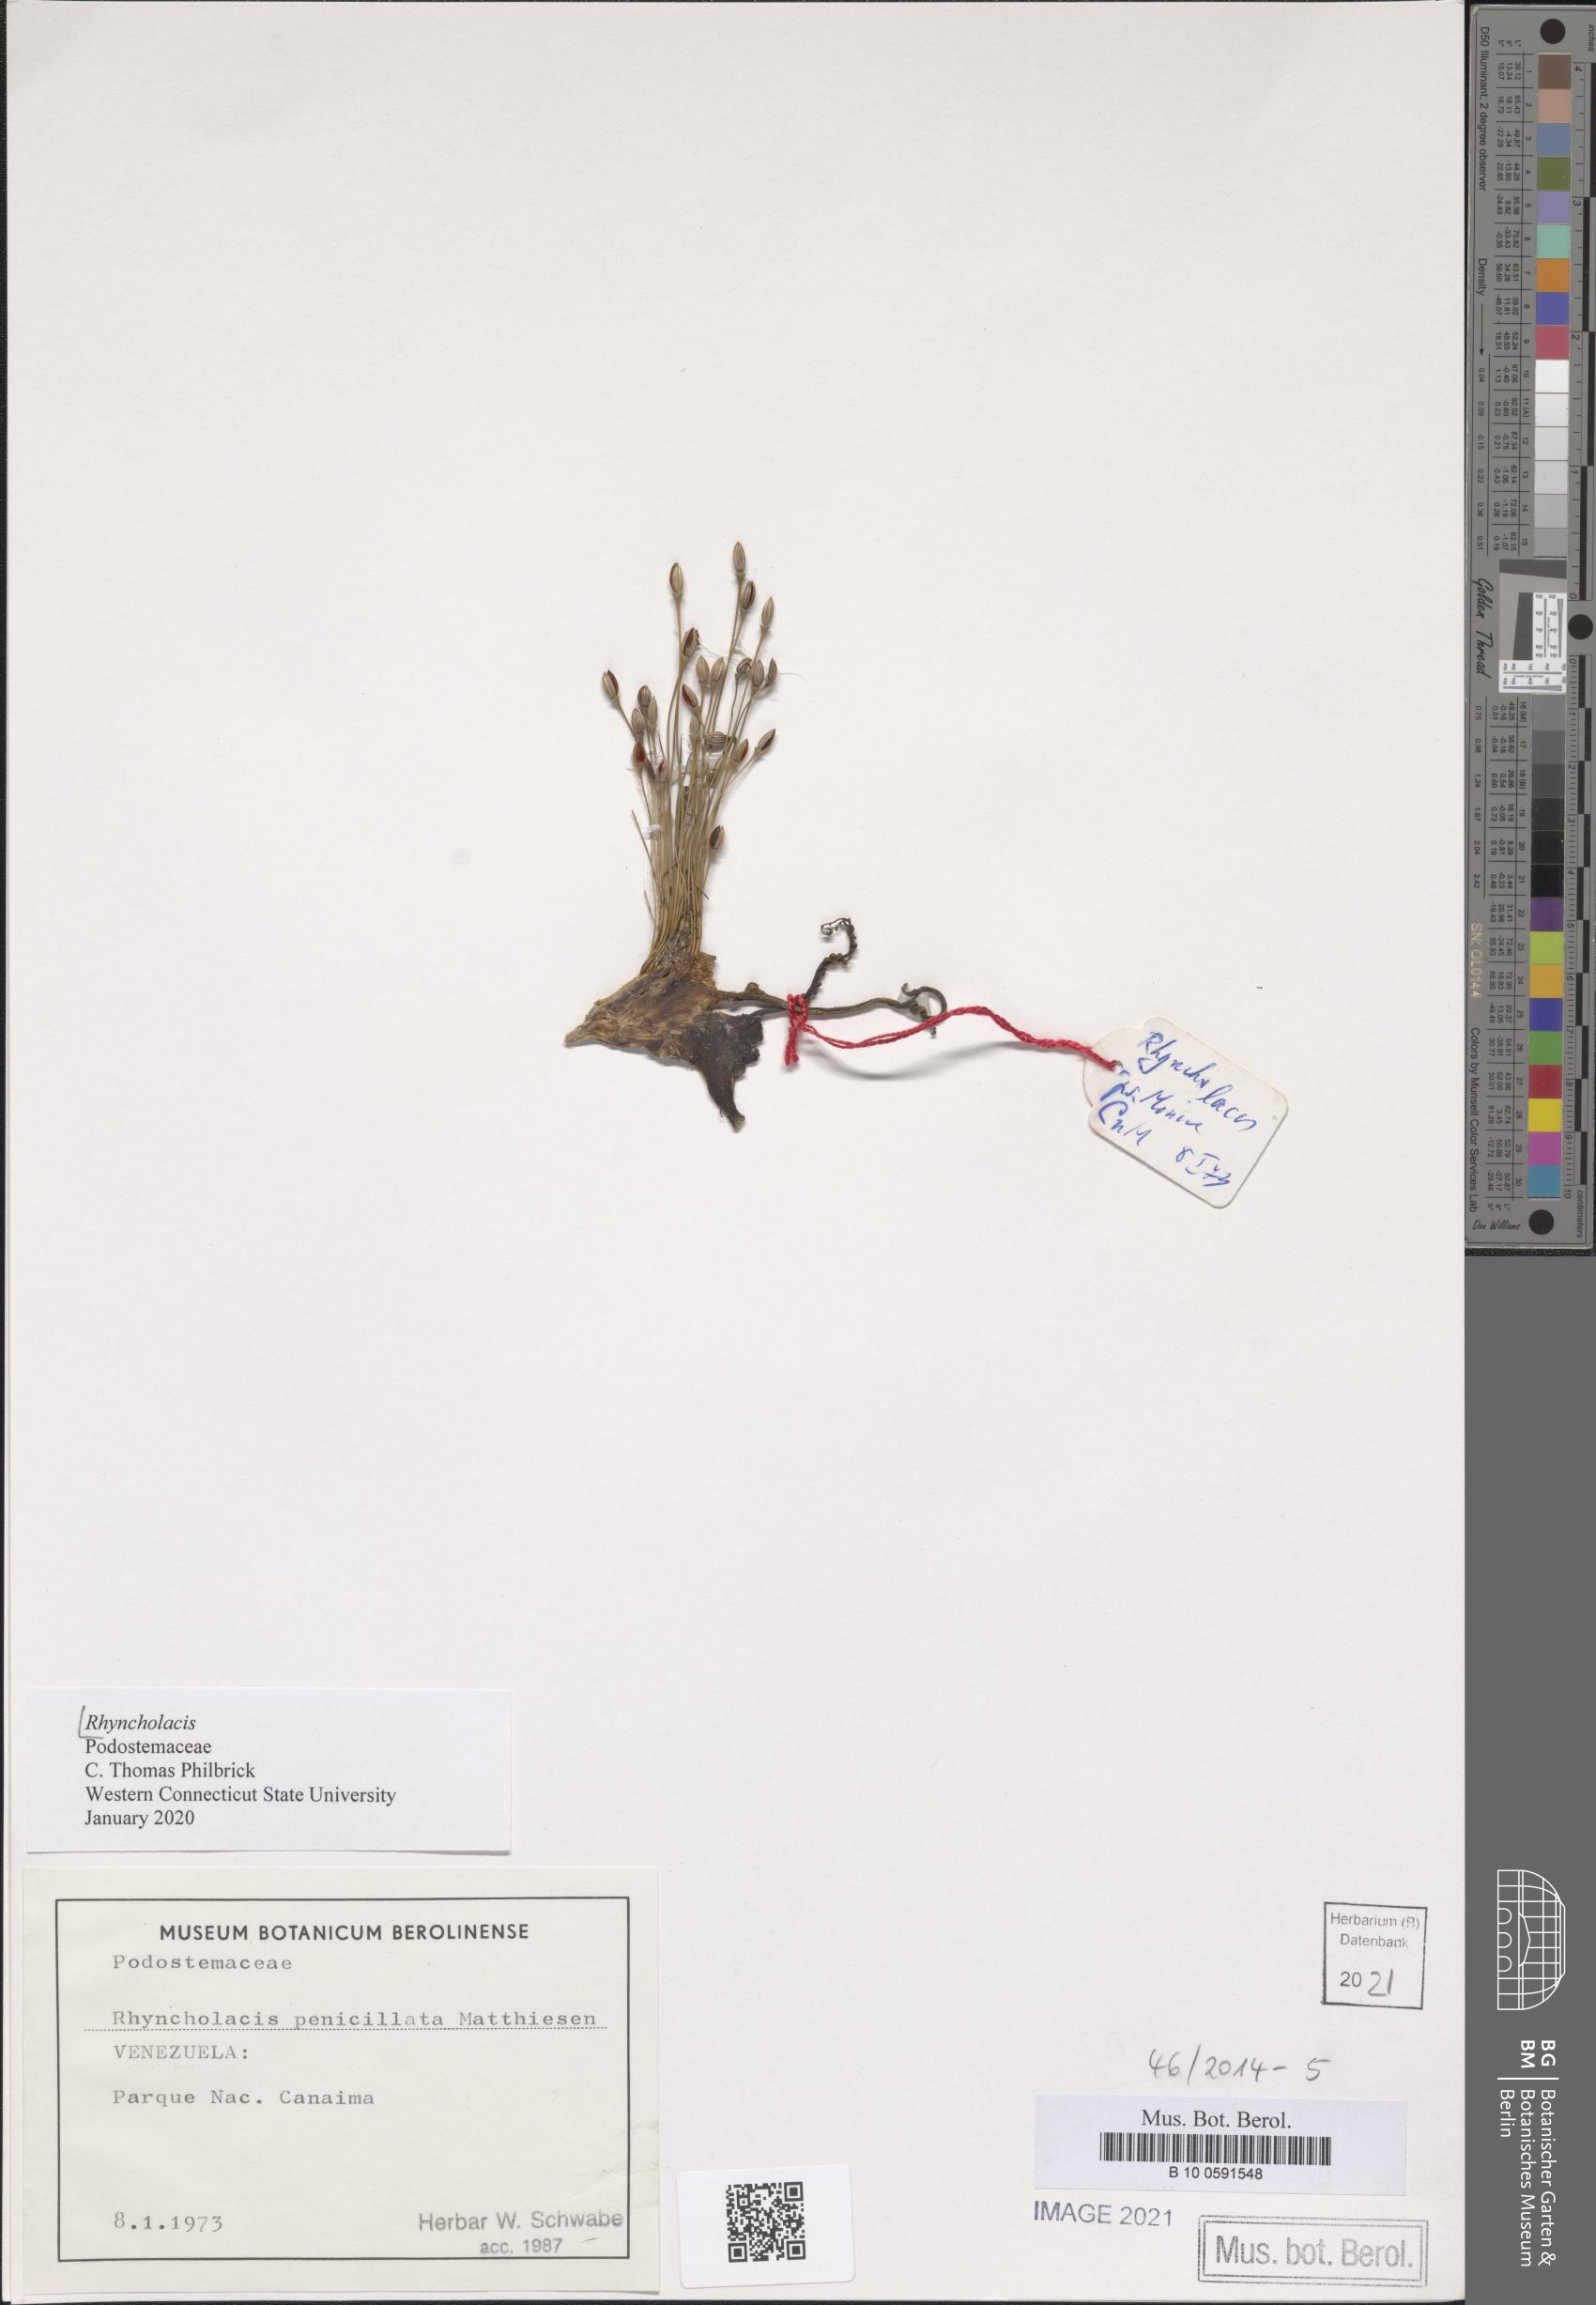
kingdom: Plantae
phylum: Tracheophyta
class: Magnoliopsida
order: Malpighiales
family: Podostemaceae
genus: Rhyncholacis
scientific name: Rhyncholacis
